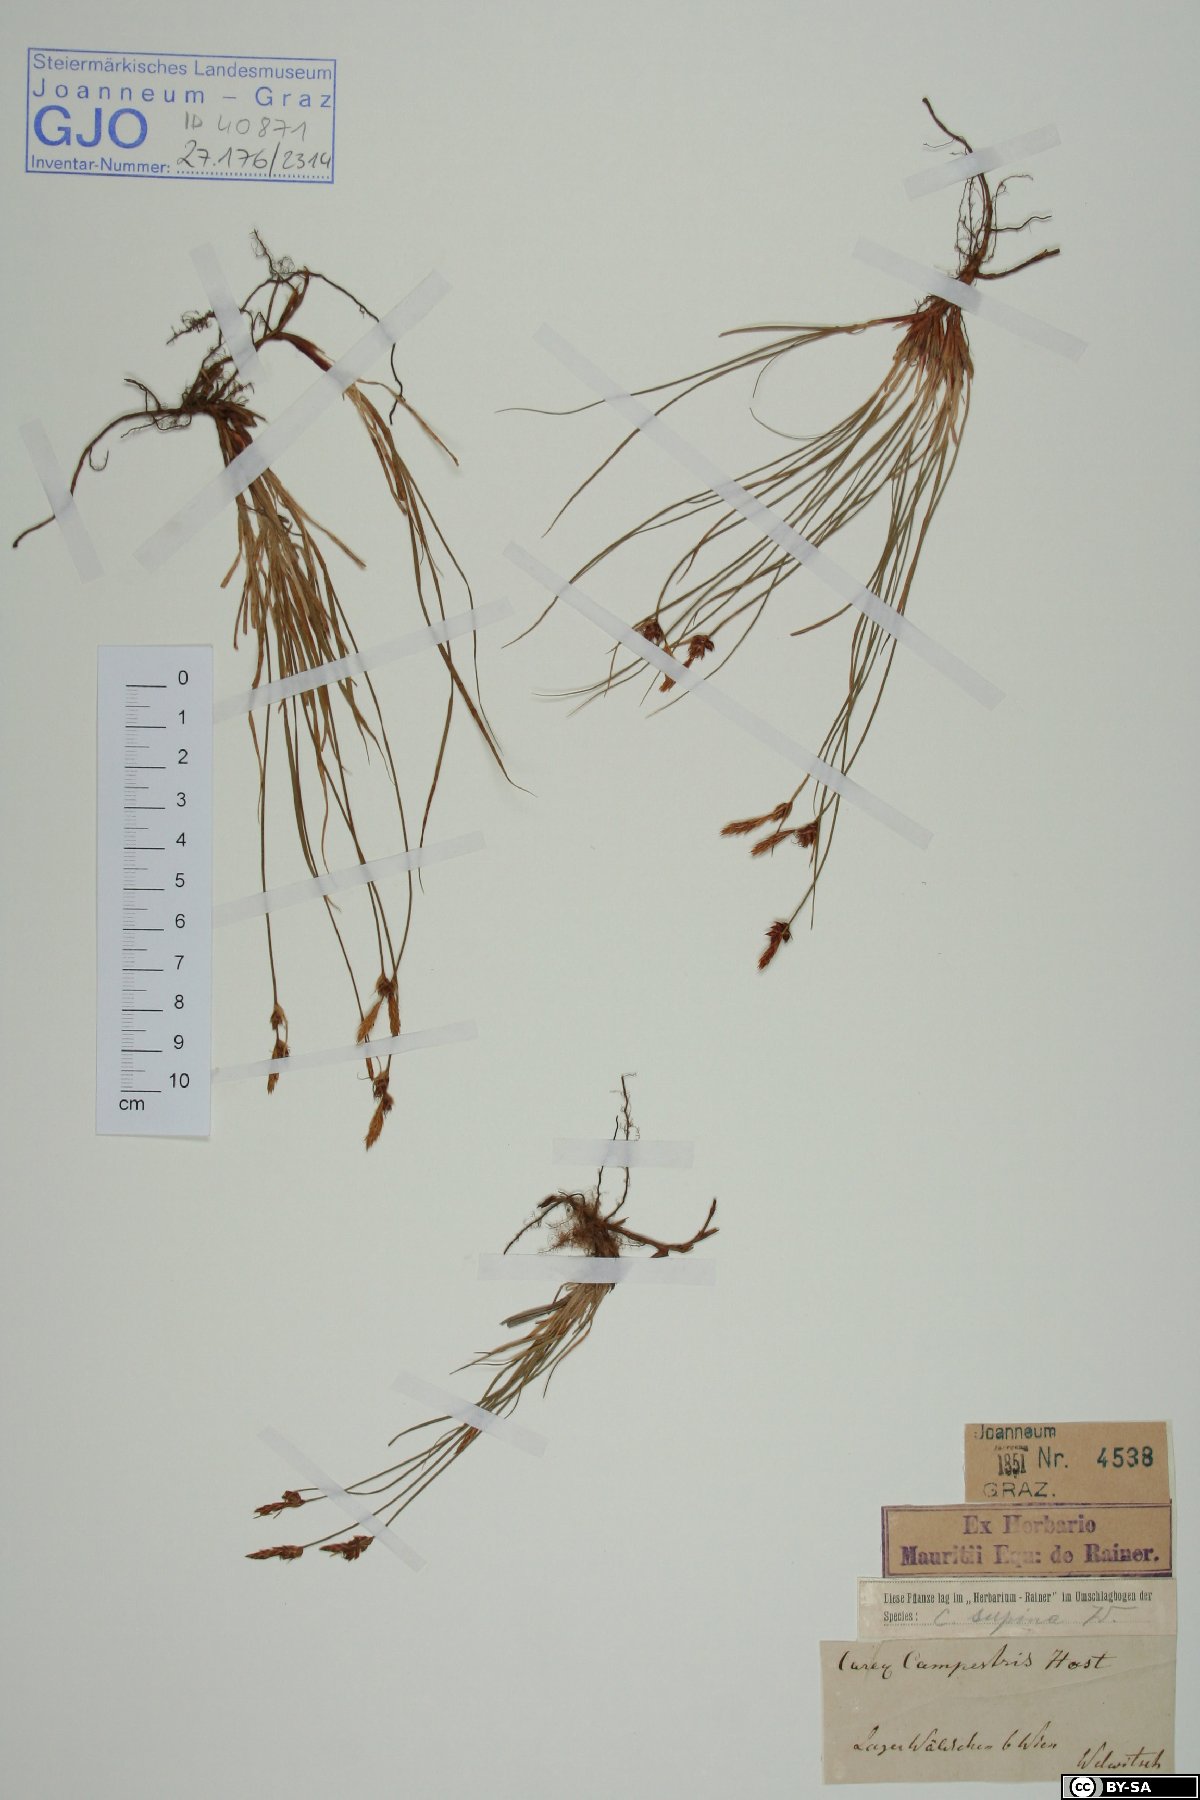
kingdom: Plantae
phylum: Tracheophyta
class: Liliopsida
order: Poales
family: Cyperaceae
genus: Carex
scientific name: Carex supina
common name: Lying-back sedge
